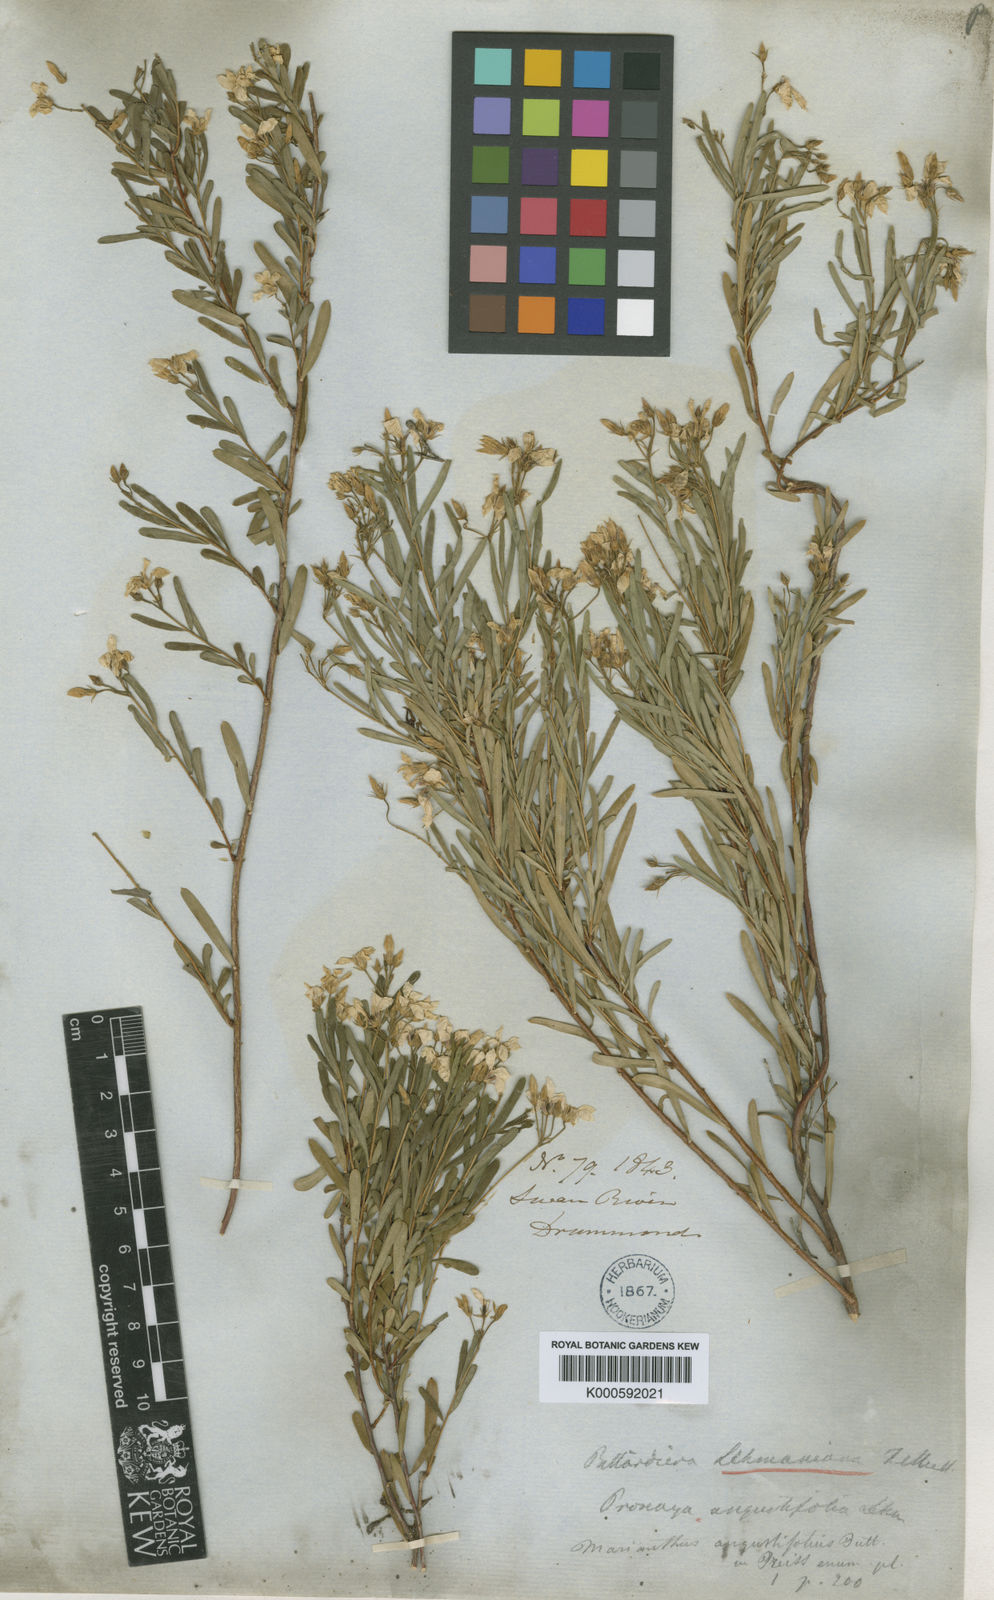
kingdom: Plantae
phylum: Tracheophyta
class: Magnoliopsida
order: Apiales
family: Pittosporaceae
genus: Billardiera
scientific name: Billardiera lehmanniana
